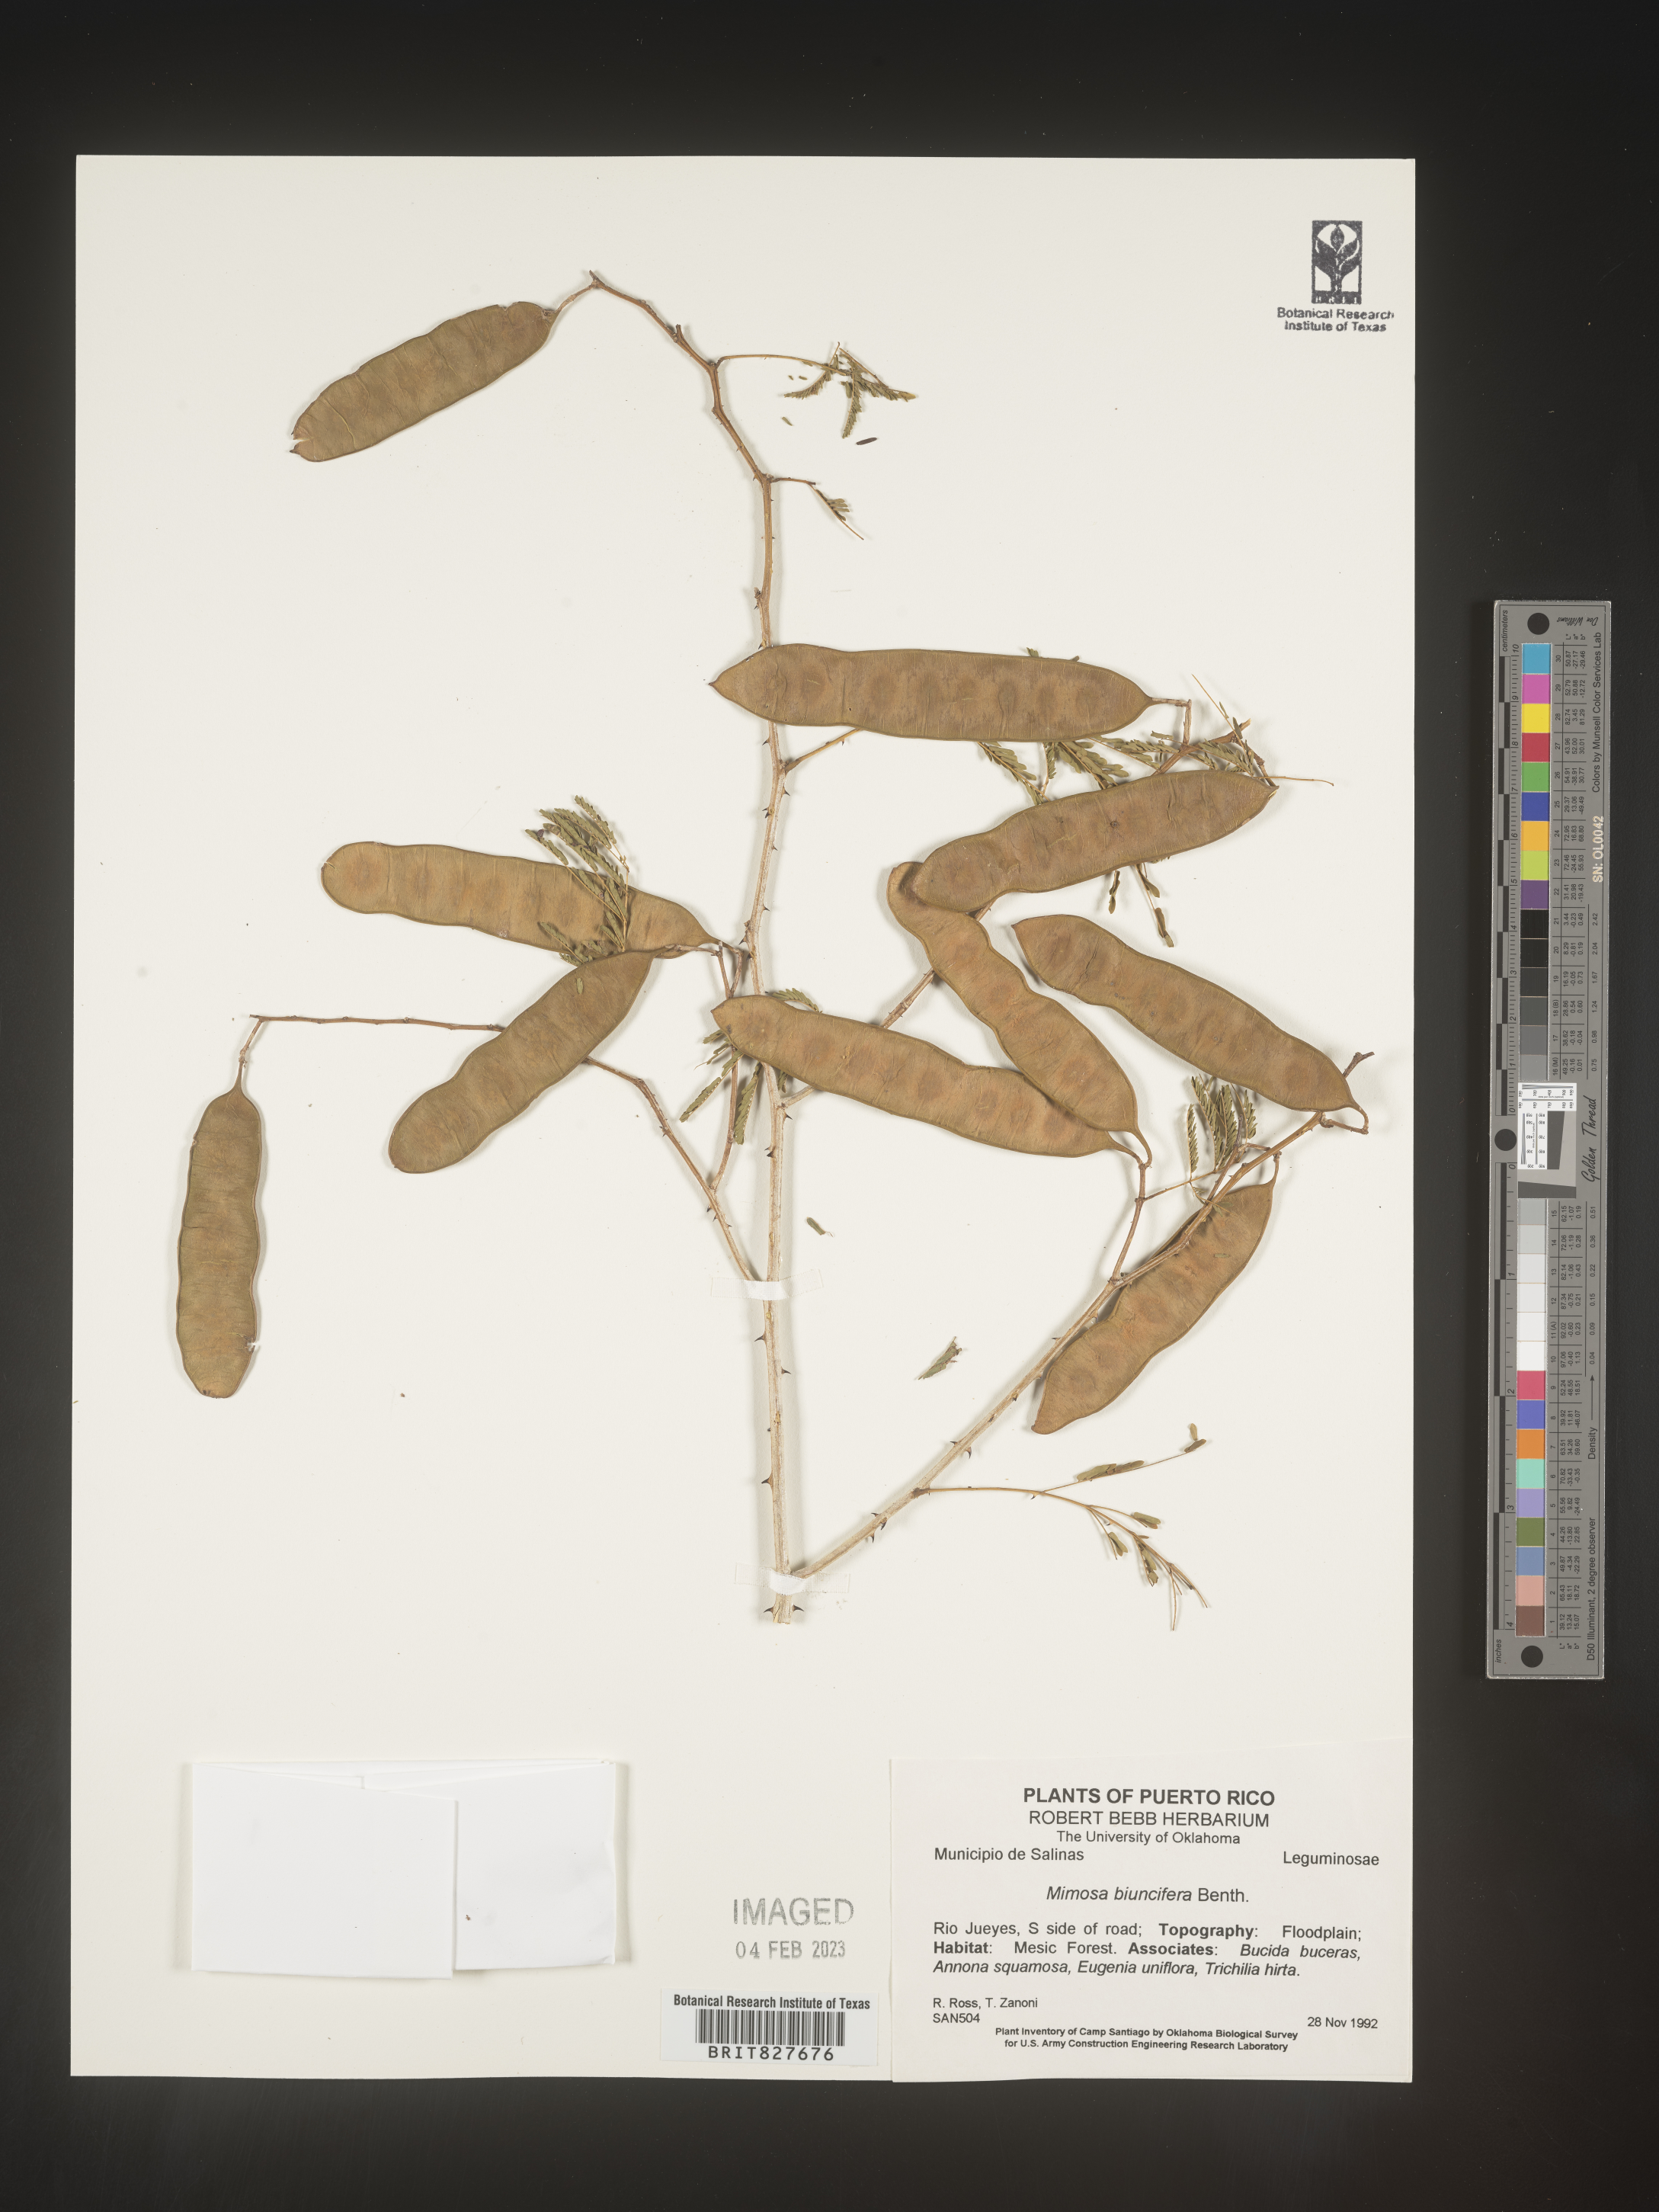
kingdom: Plantae
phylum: Tracheophyta
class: Magnoliopsida
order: Fabales
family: Fabaceae
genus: Mimosa
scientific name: Mimosa
